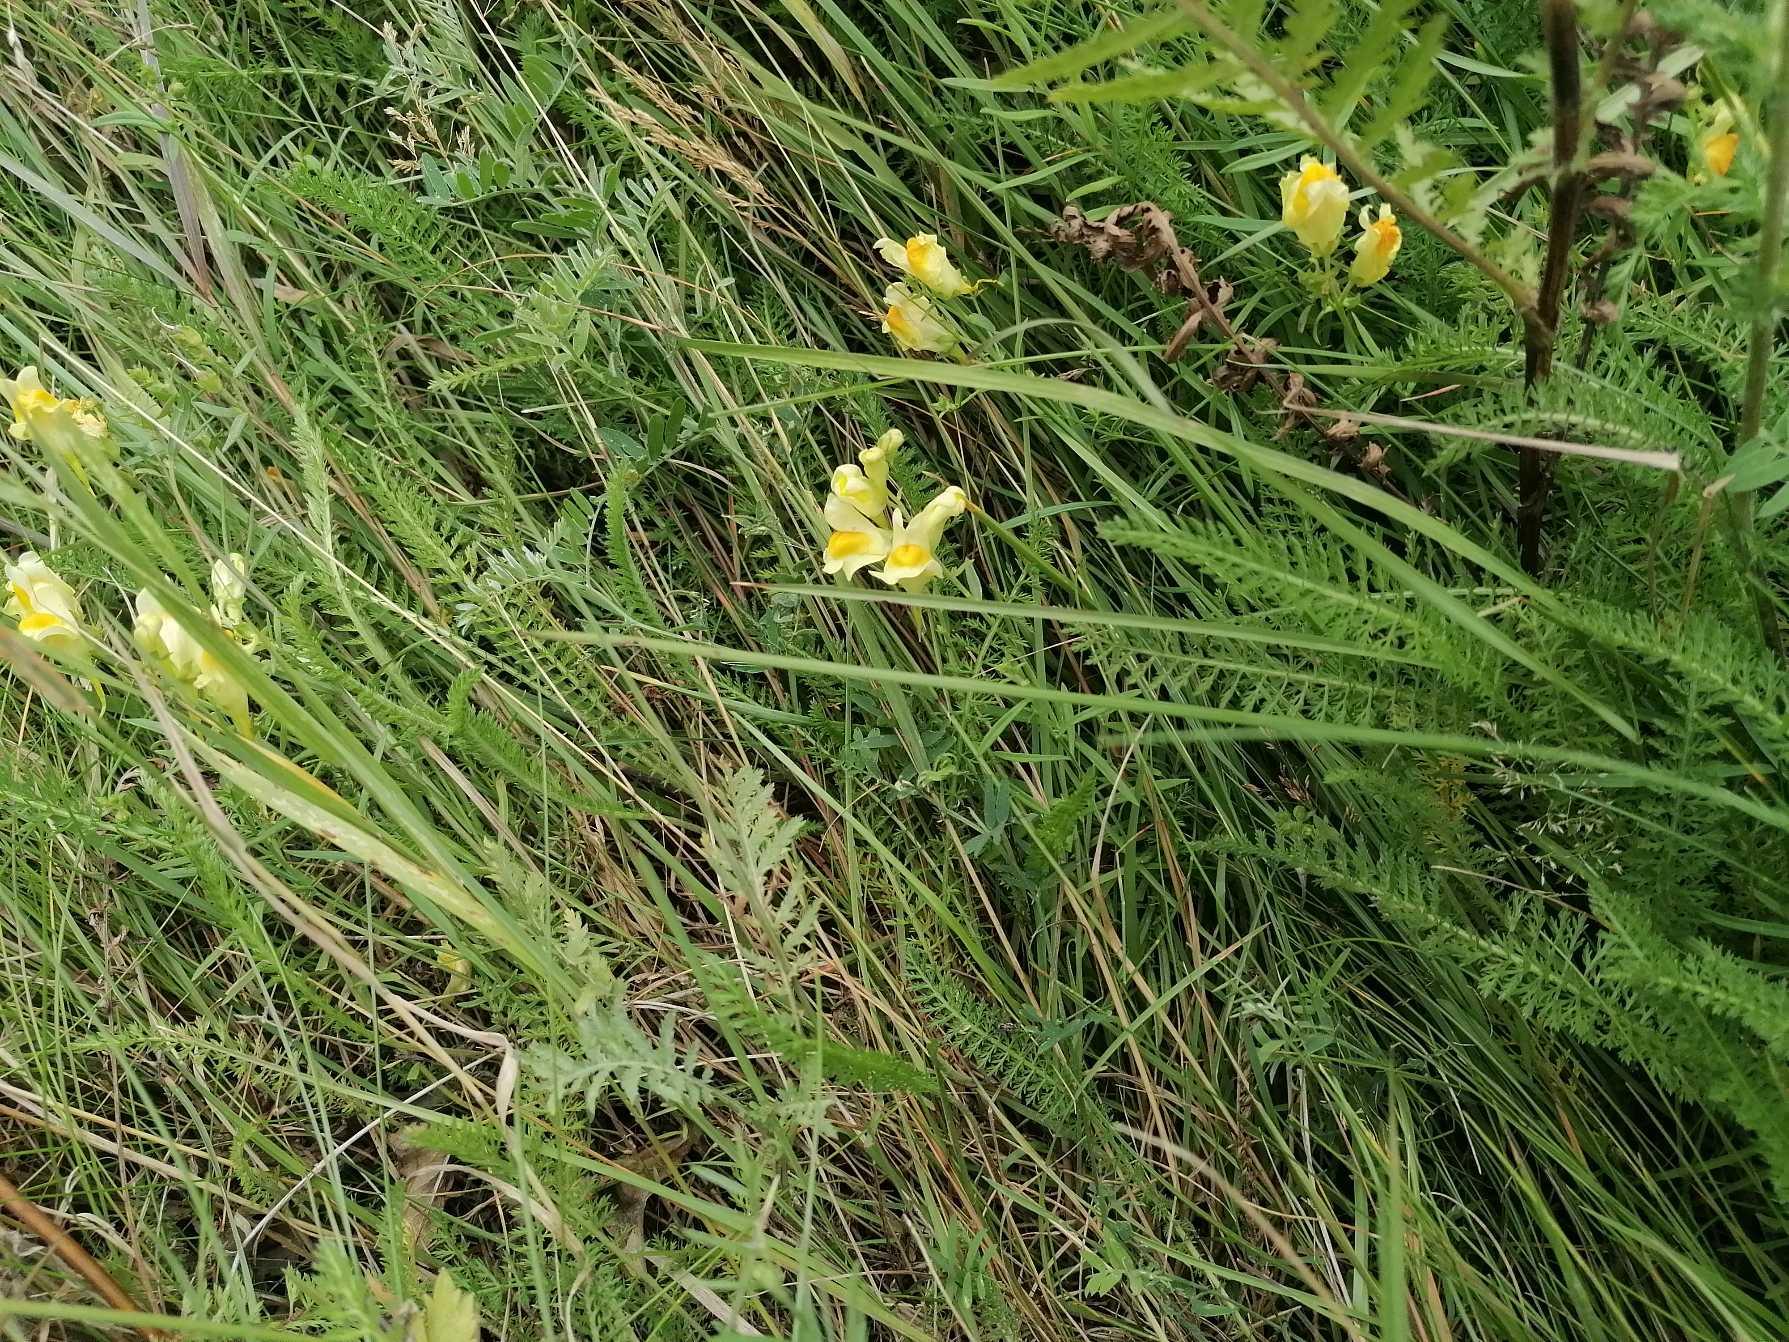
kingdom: Plantae
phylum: Tracheophyta
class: Magnoliopsida
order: Lamiales
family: Plantaginaceae
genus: Linaria
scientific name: Linaria vulgaris
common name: Almindelig torskemund
